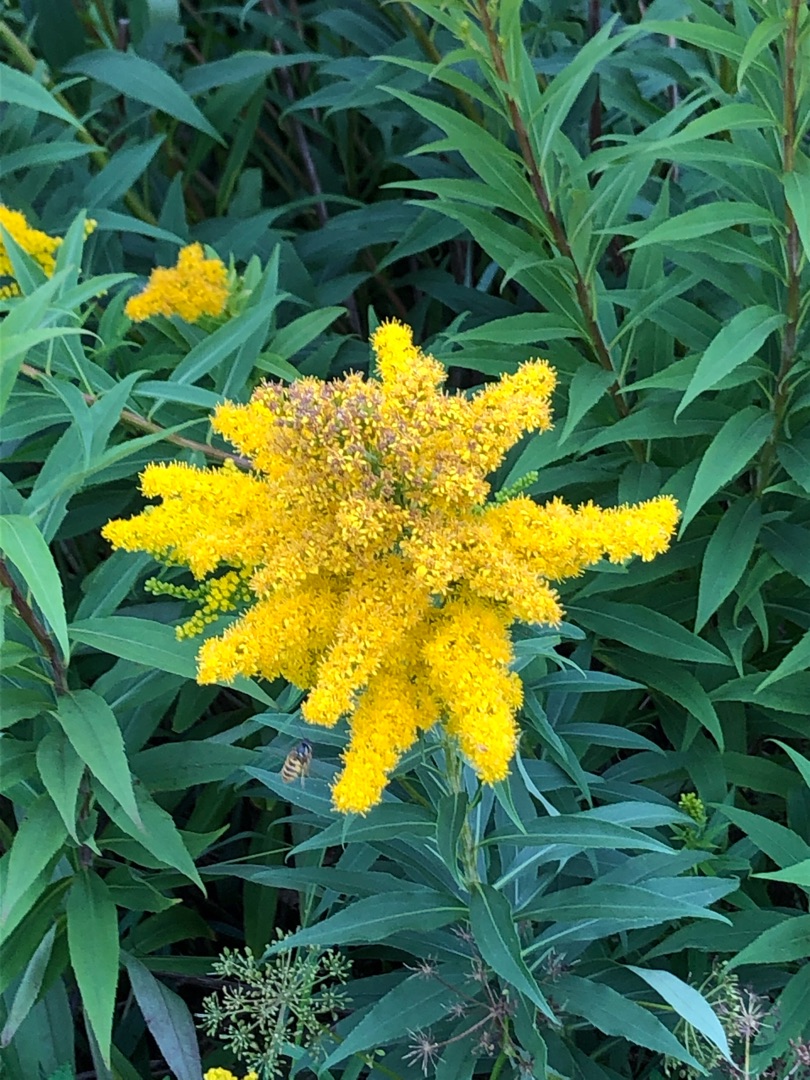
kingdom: Plantae
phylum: Tracheophyta
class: Magnoliopsida
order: Asterales
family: Asteraceae
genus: Solidago
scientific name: Solidago gigantea
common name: Sildig gyldenris
